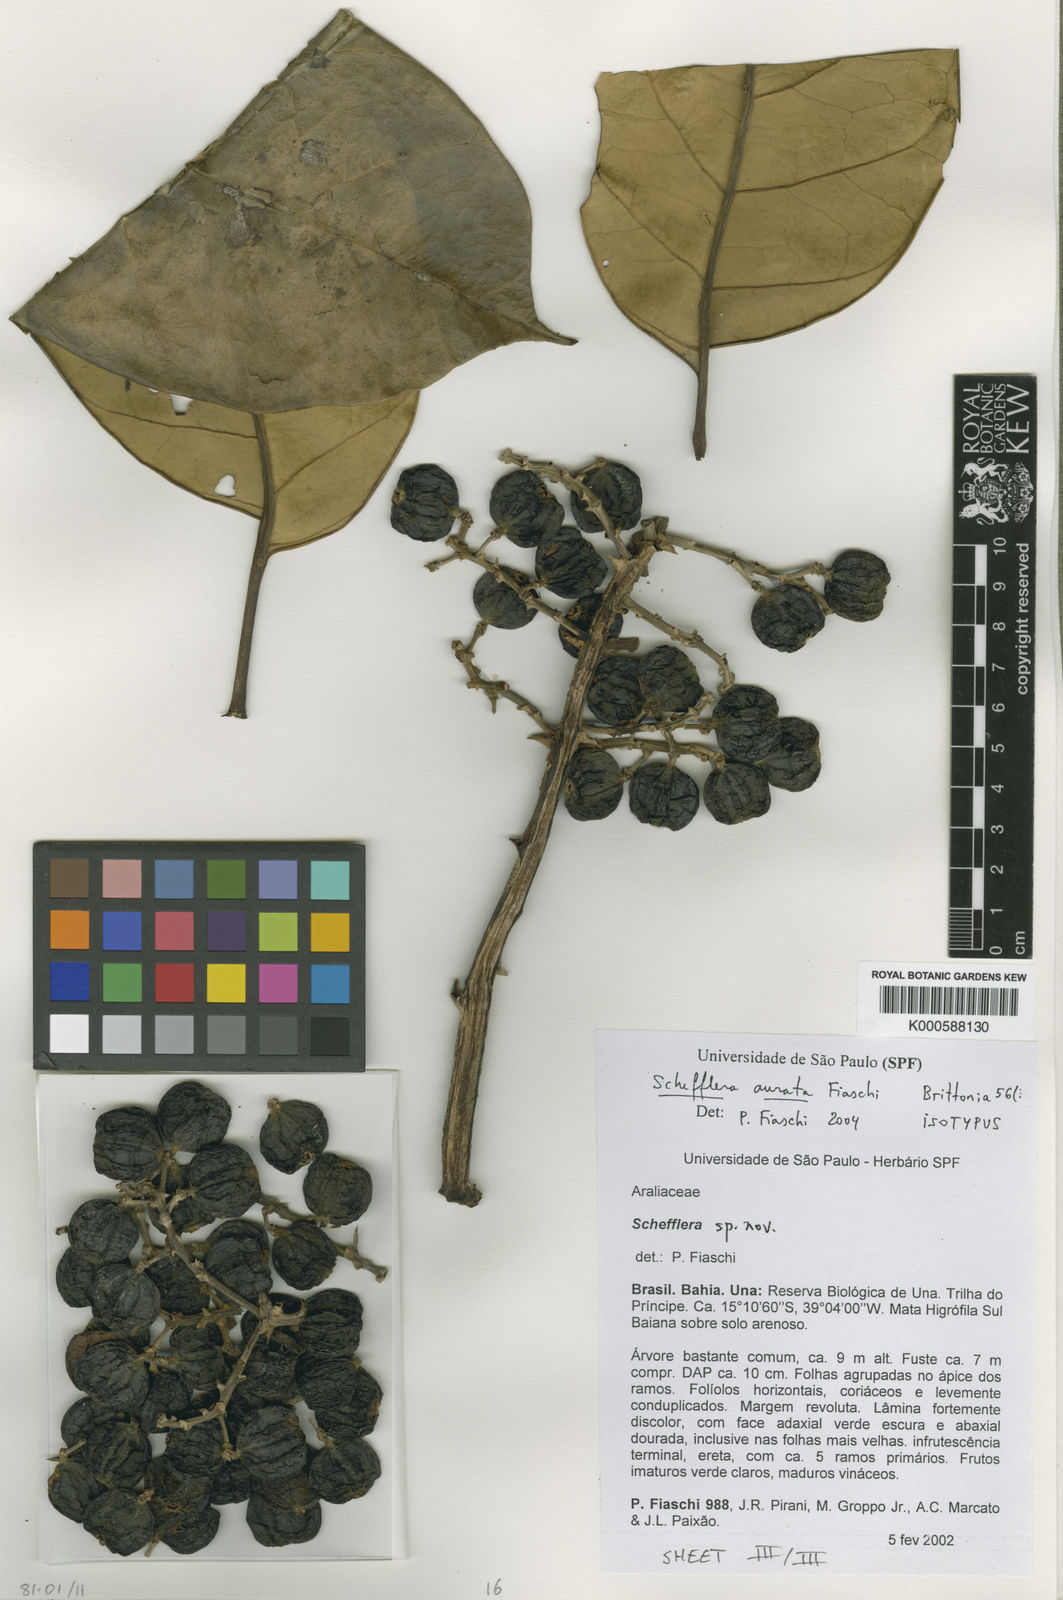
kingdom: Plantae
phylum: Tracheophyta
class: Magnoliopsida
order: Apiales
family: Araliaceae
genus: Didymopanax
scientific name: Didymopanax auratus
